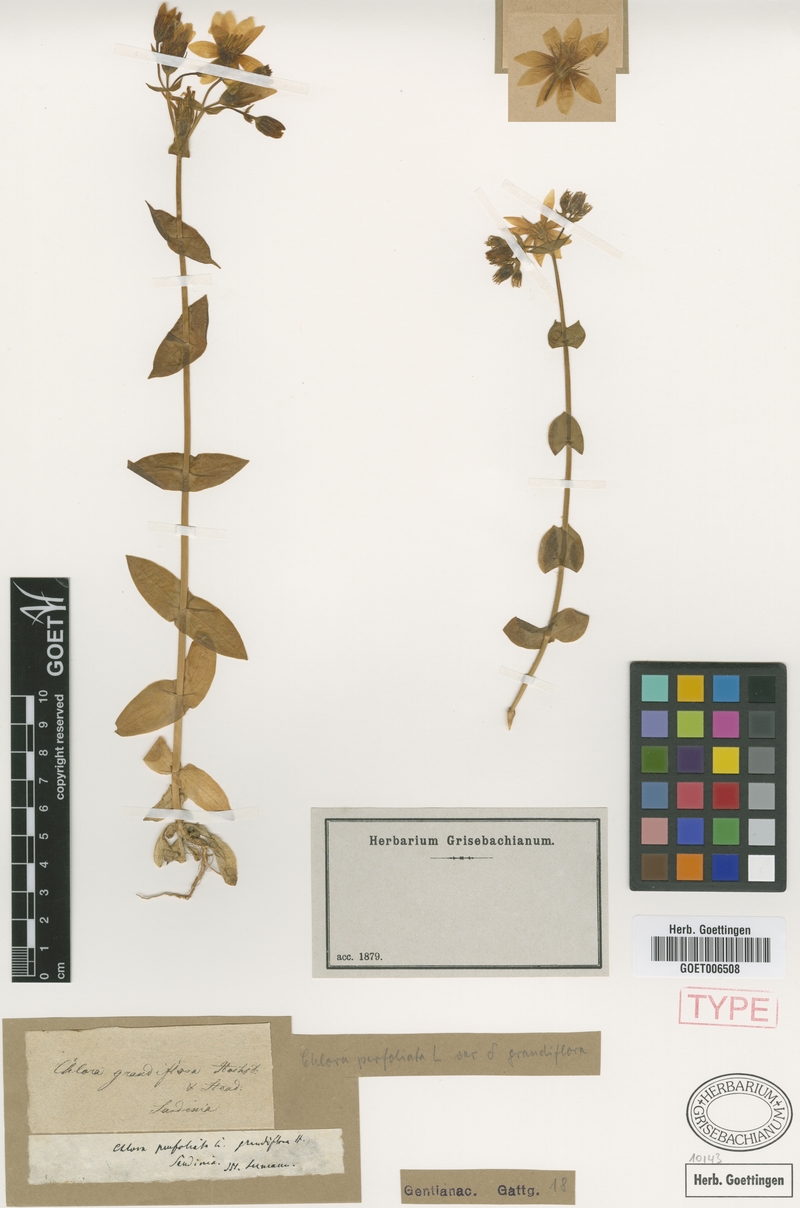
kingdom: Plantae
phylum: Tracheophyta
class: Magnoliopsida
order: Gentianales
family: Gentianaceae
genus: Blackstonia
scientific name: Blackstonia grandiflora
